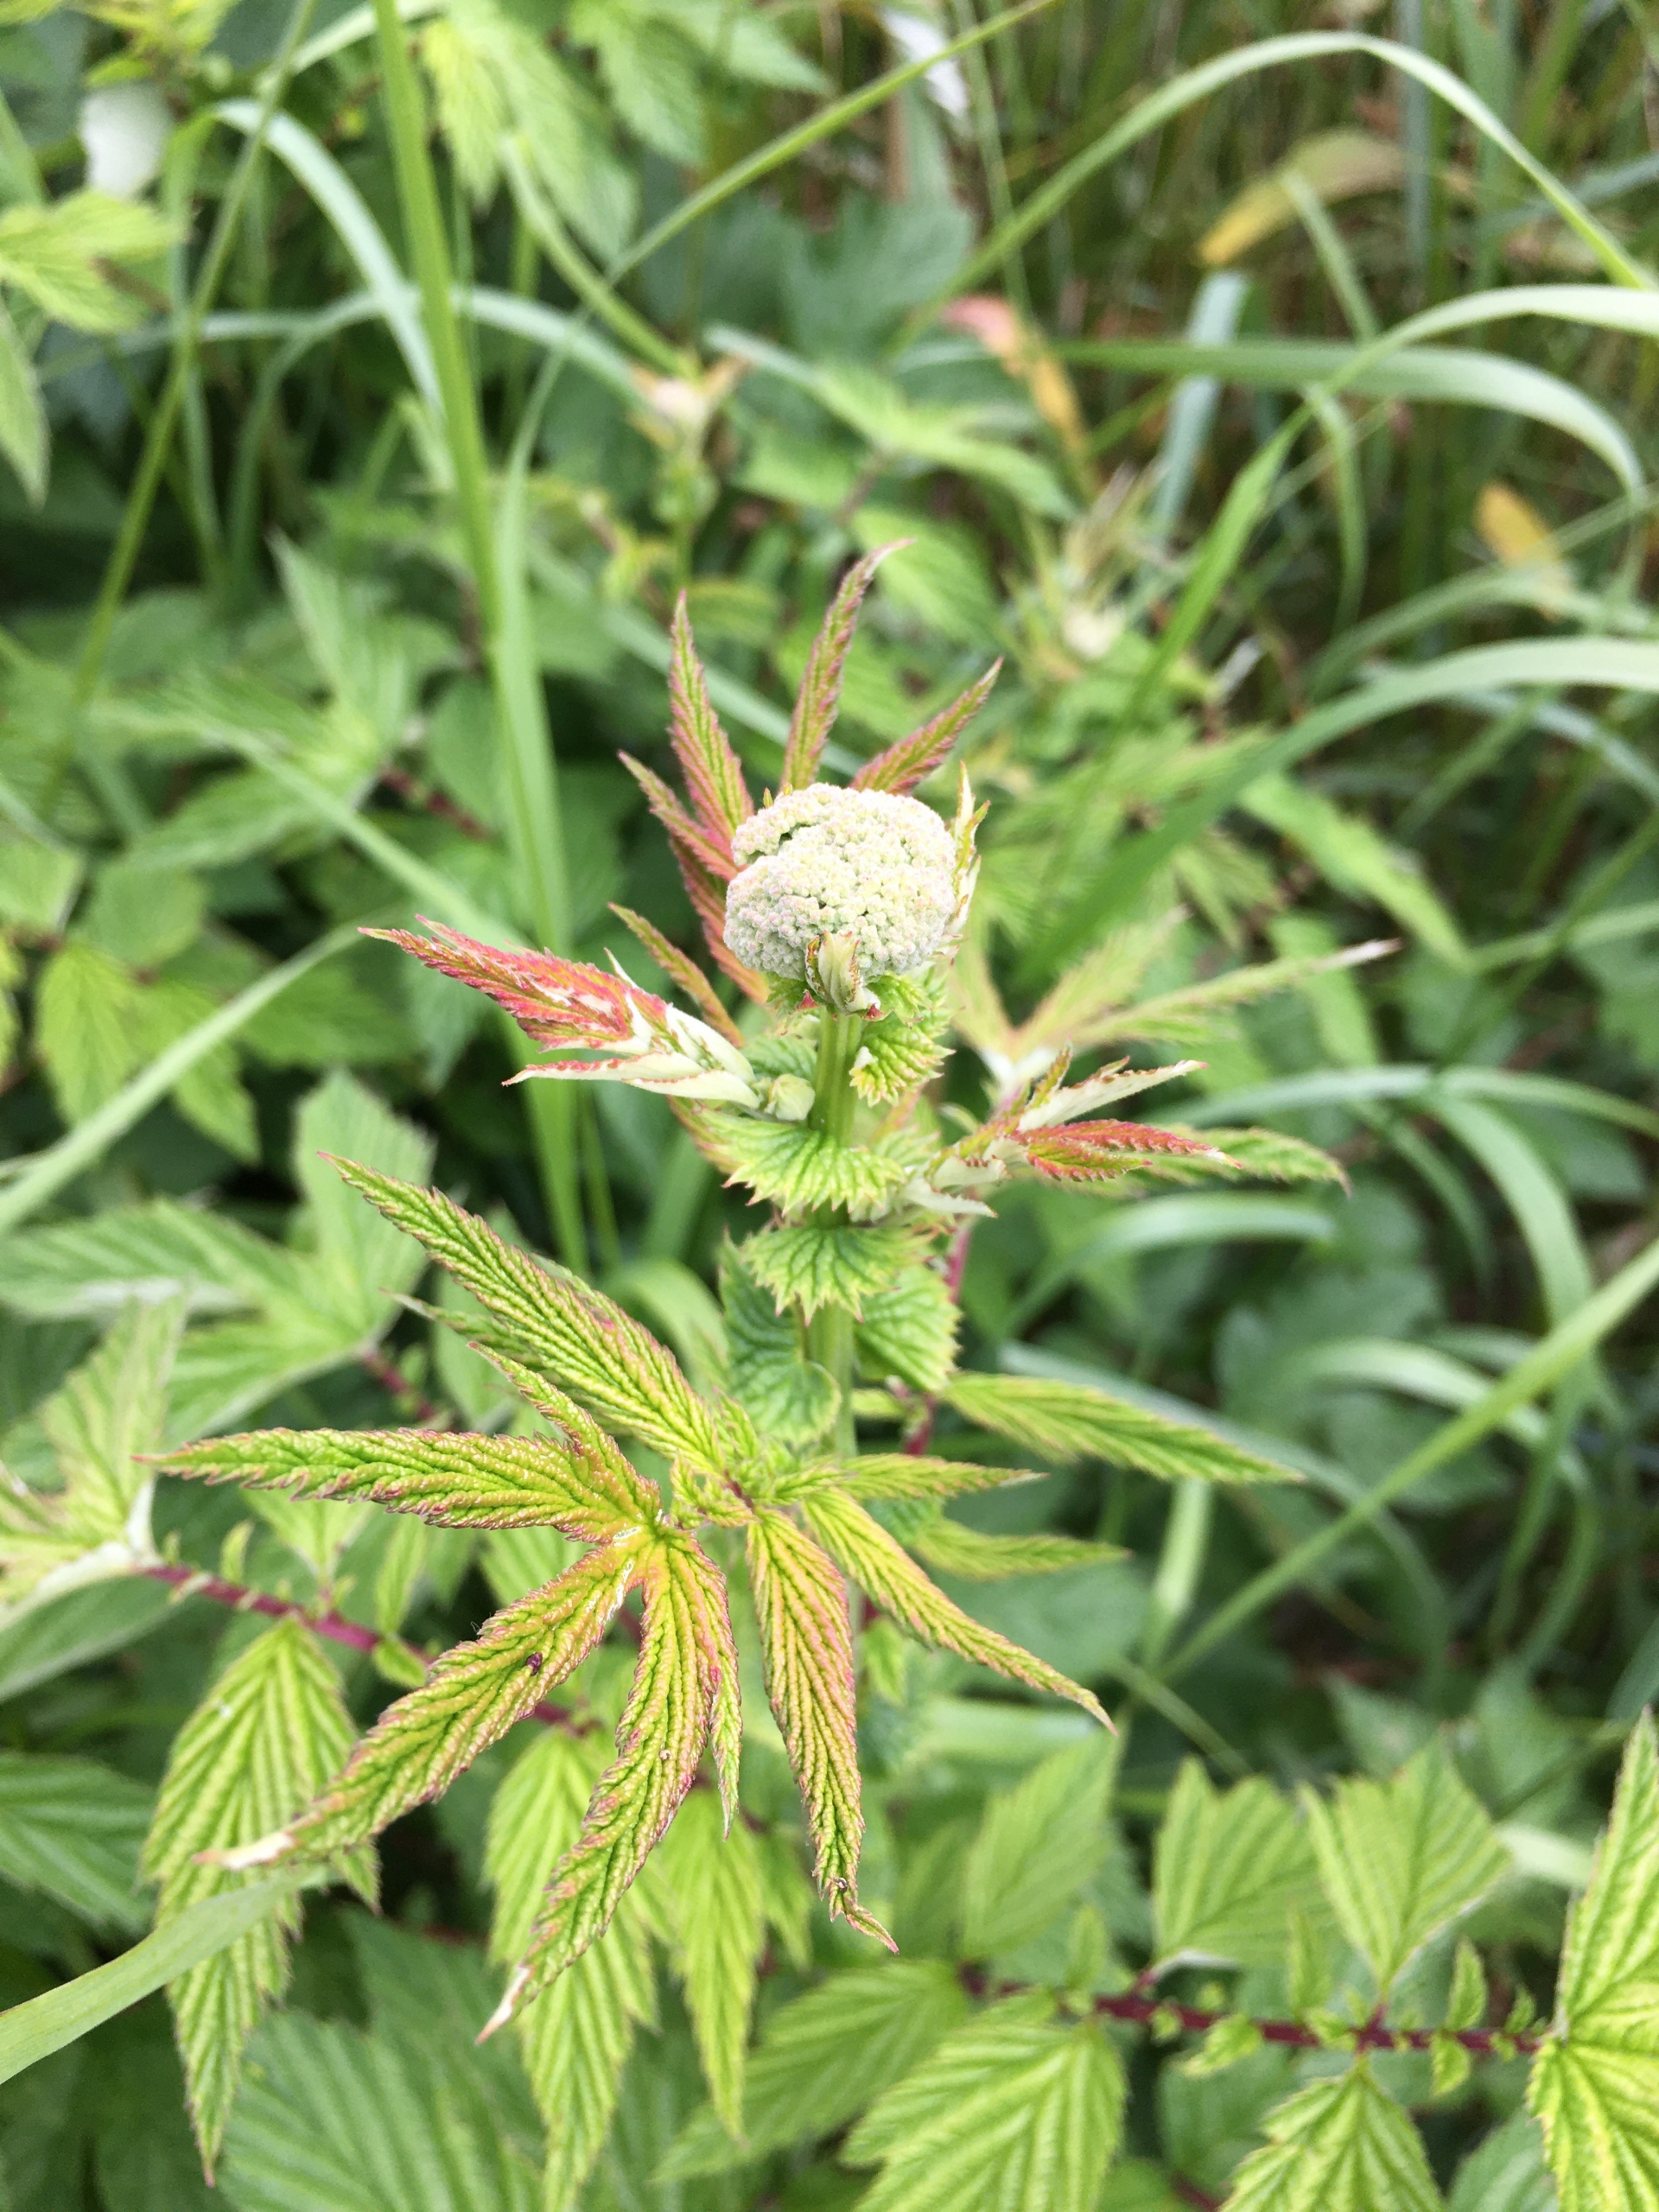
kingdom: Plantae
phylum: Tracheophyta
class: Magnoliopsida
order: Rosales
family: Rosaceae
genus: Filipendula
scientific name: Filipendula ulmaria
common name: Almindelig mjødurt
